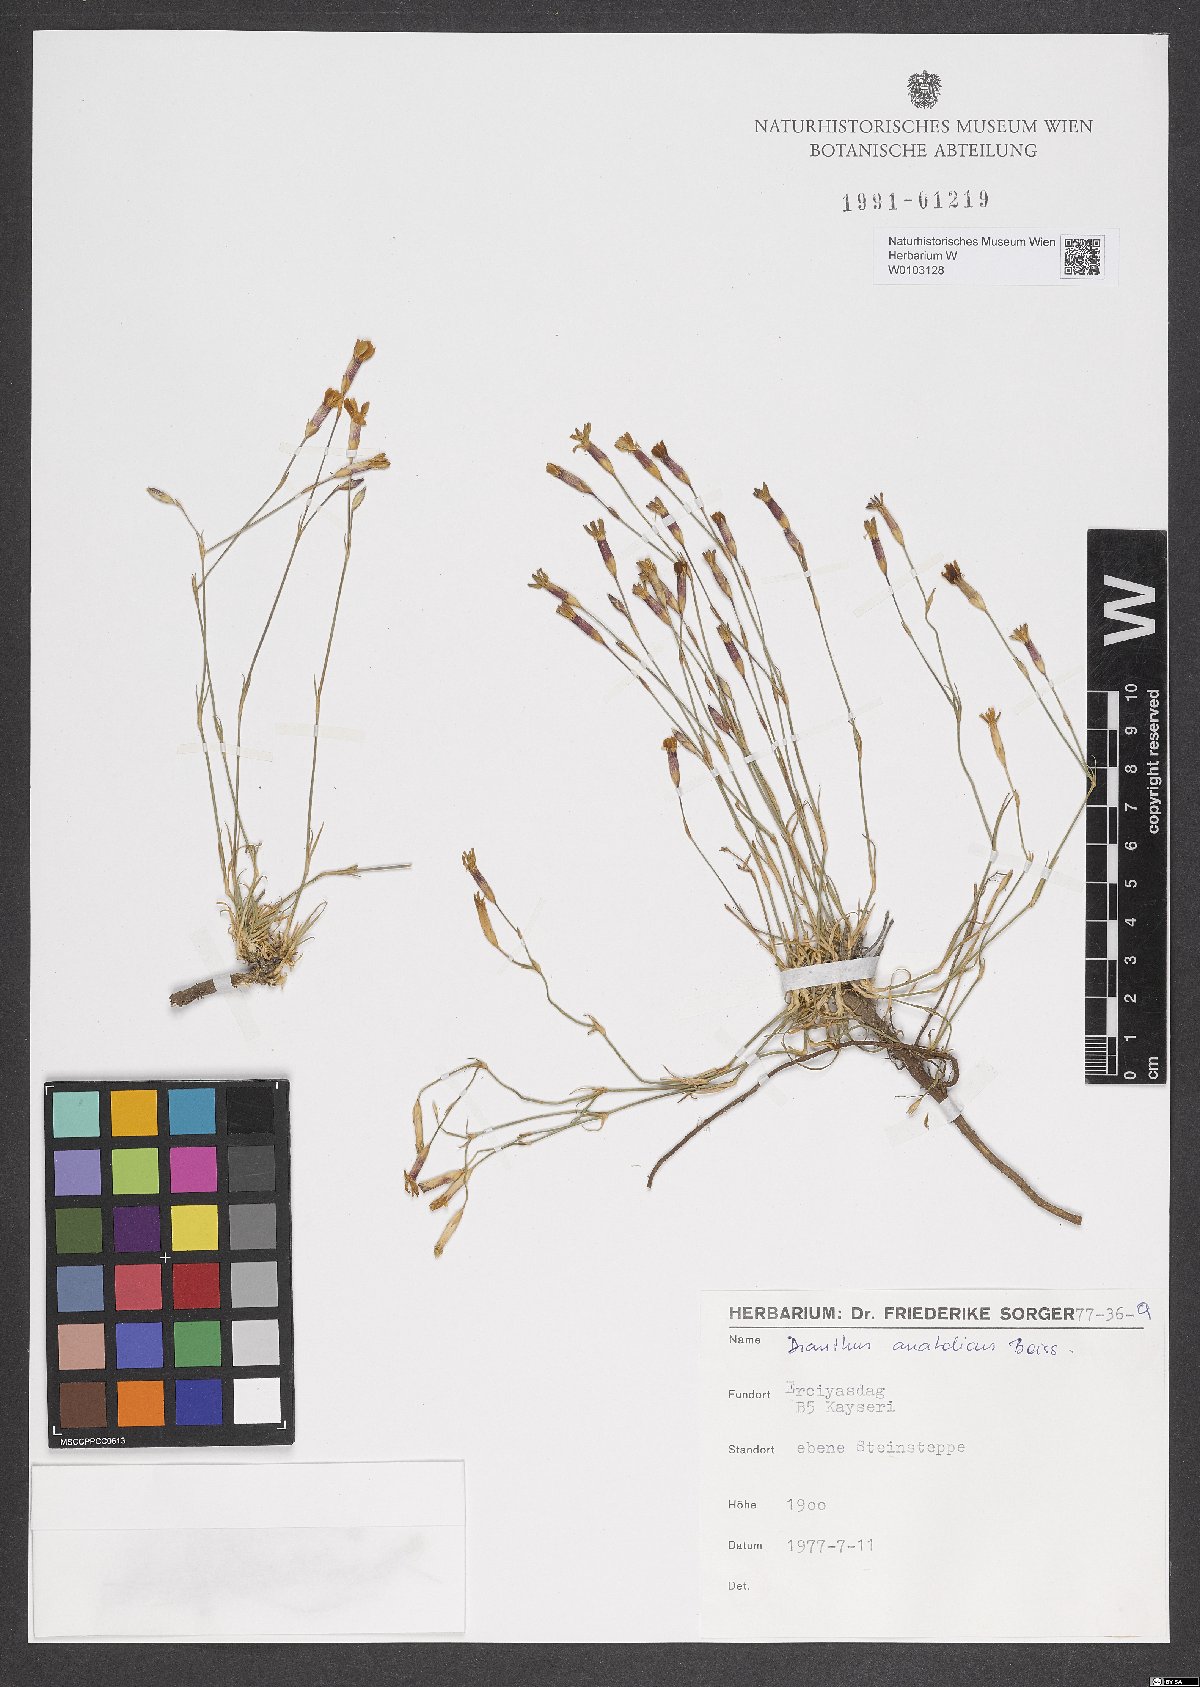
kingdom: Plantae
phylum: Tracheophyta
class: Magnoliopsida
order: Caryophyllales
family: Caryophyllaceae
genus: Dianthus
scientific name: Dianthus anatolicus
